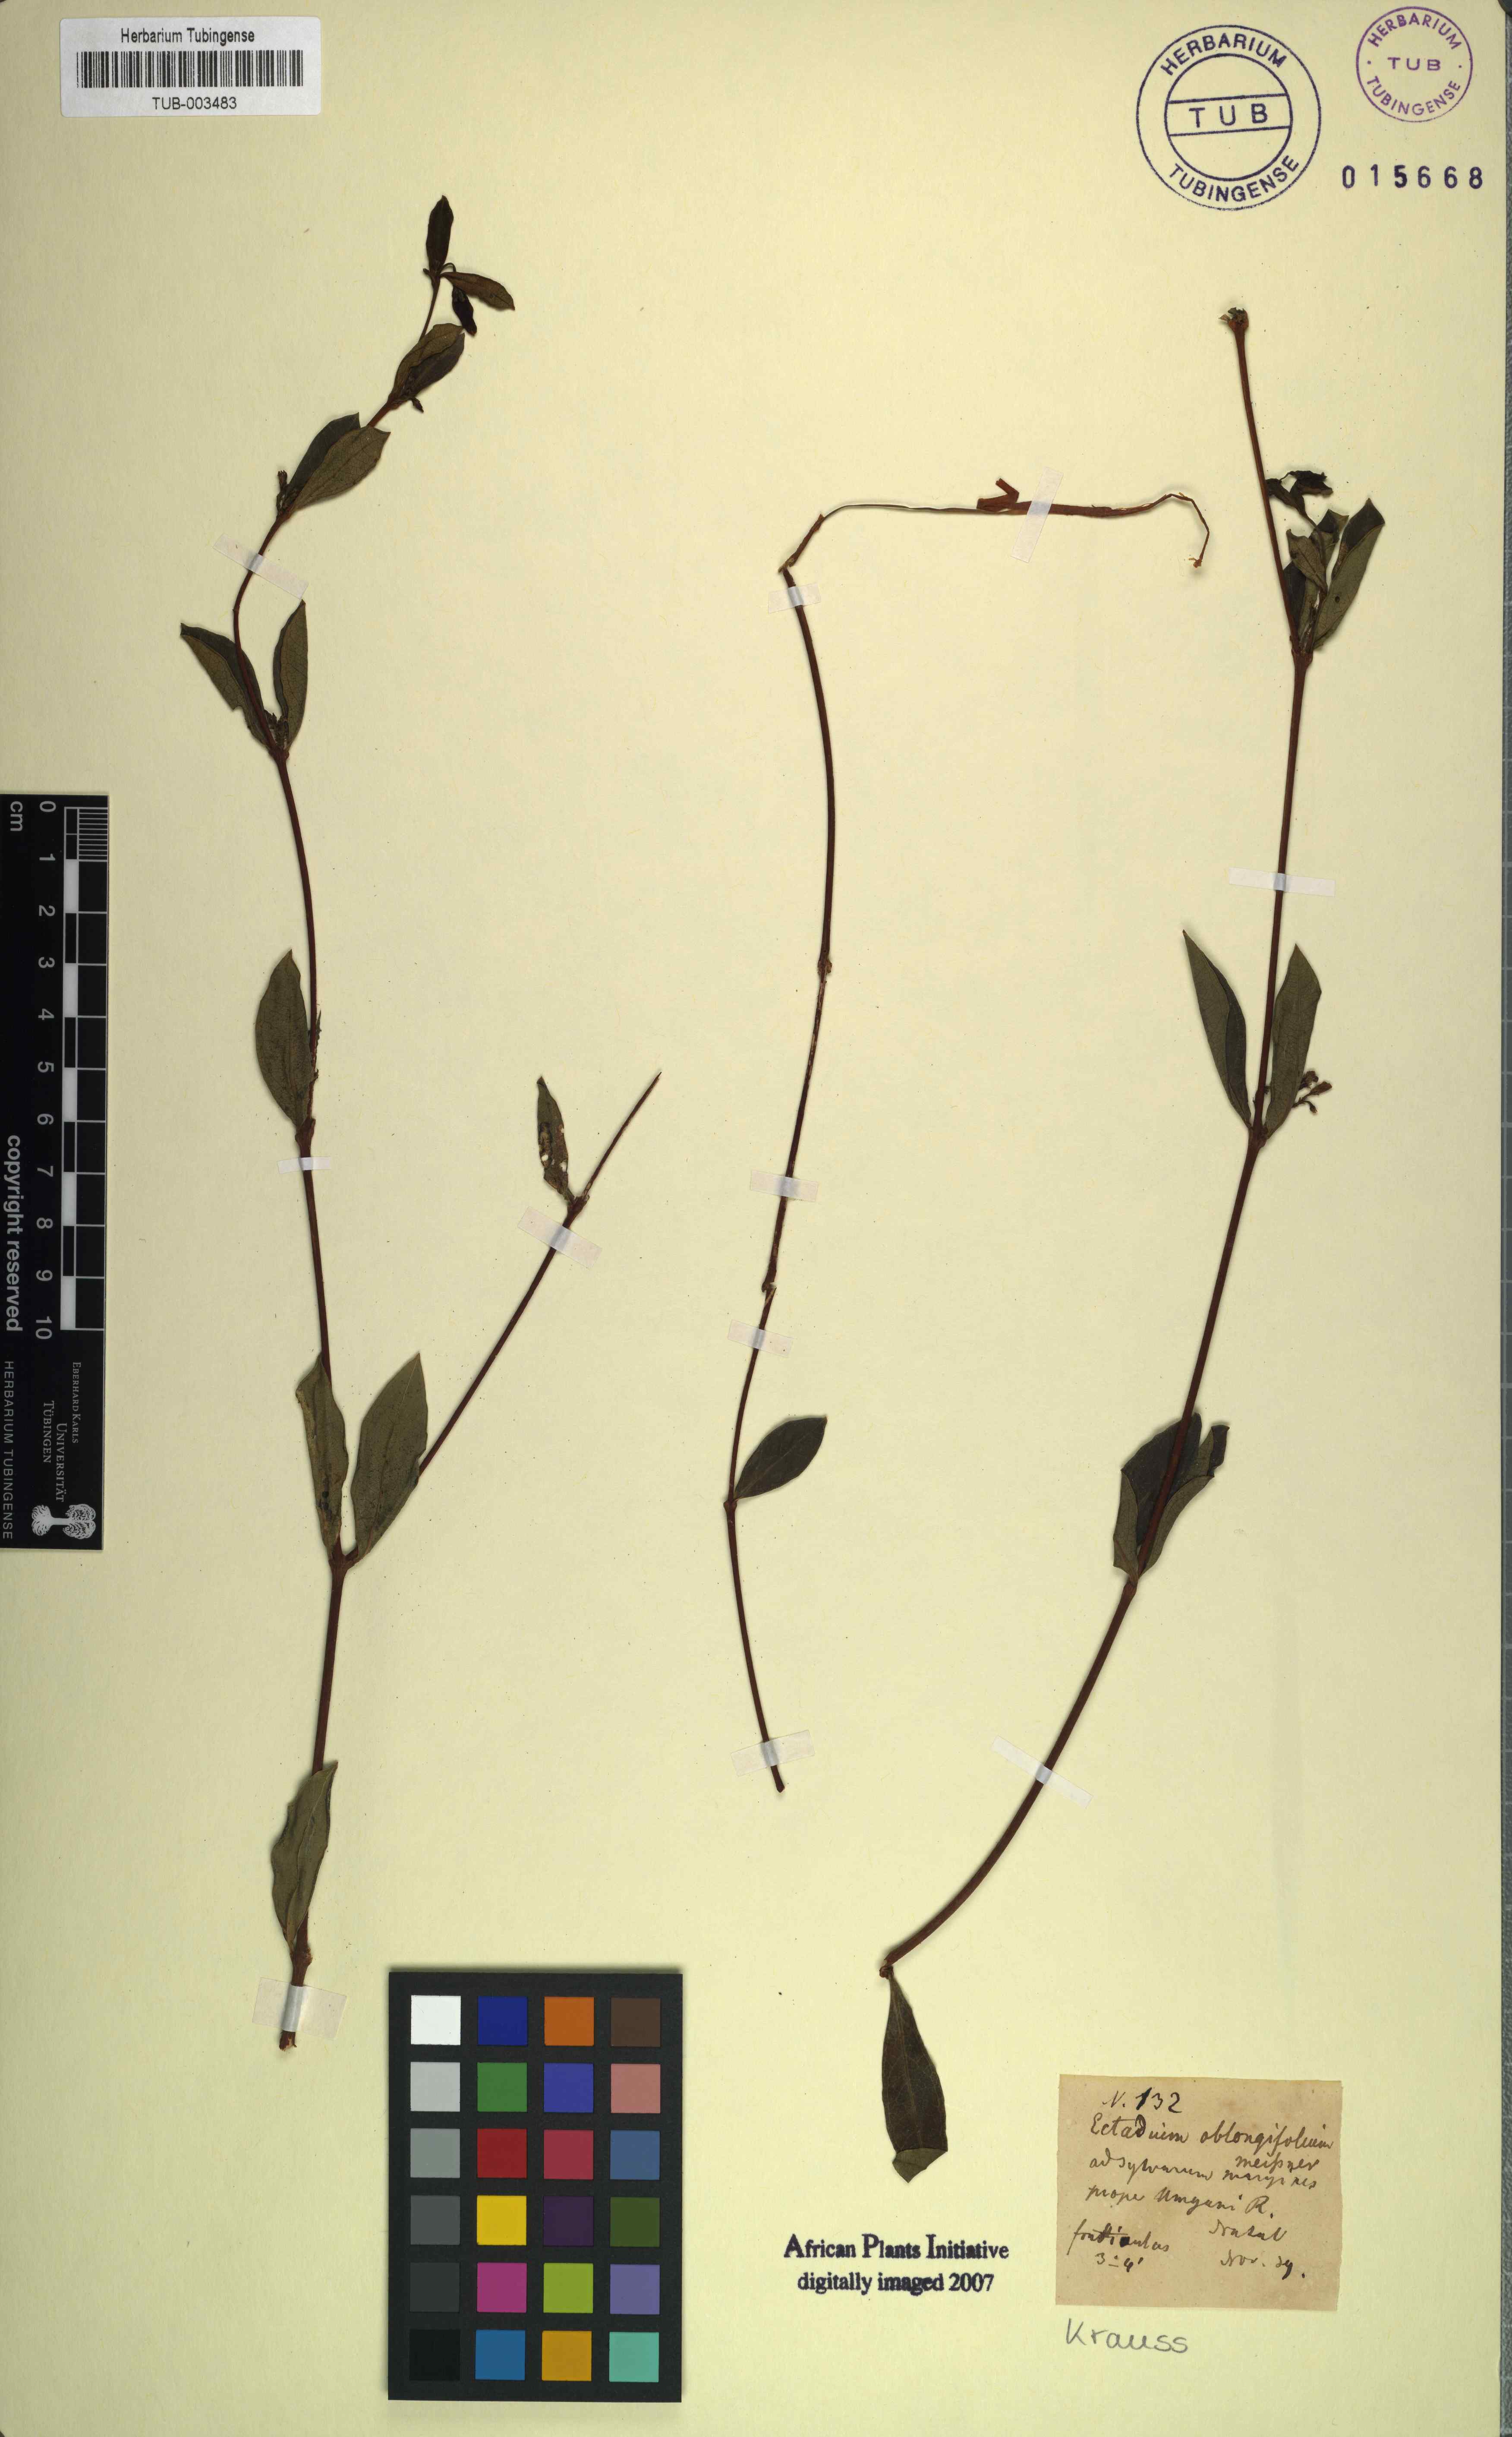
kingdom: Plantae
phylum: Tracheophyta
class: Magnoliopsida
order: Gentianales
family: Apocynaceae
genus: Cryptolepis
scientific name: Cryptolepis oblongifolia
